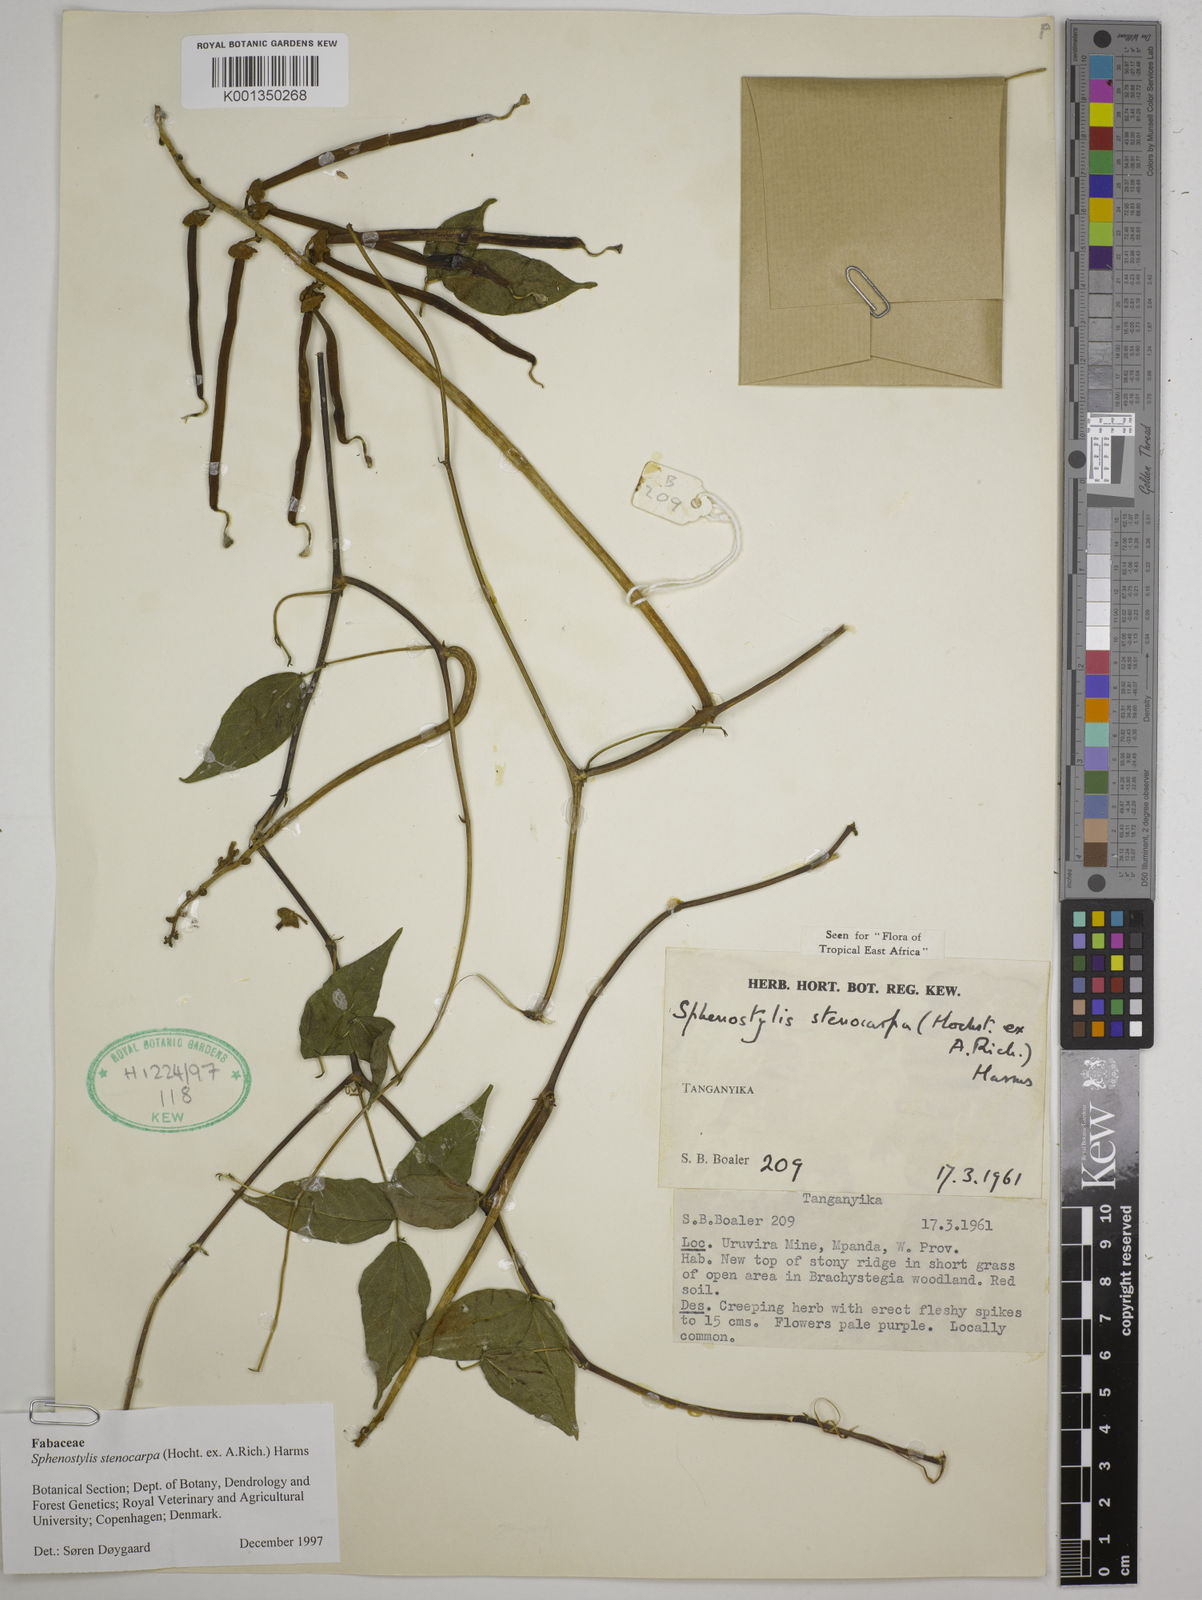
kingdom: Plantae
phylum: Tracheophyta
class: Magnoliopsida
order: Fabales
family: Fabaceae
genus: Sphenostylis
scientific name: Sphenostylis stenocarpa
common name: Yam-pea
